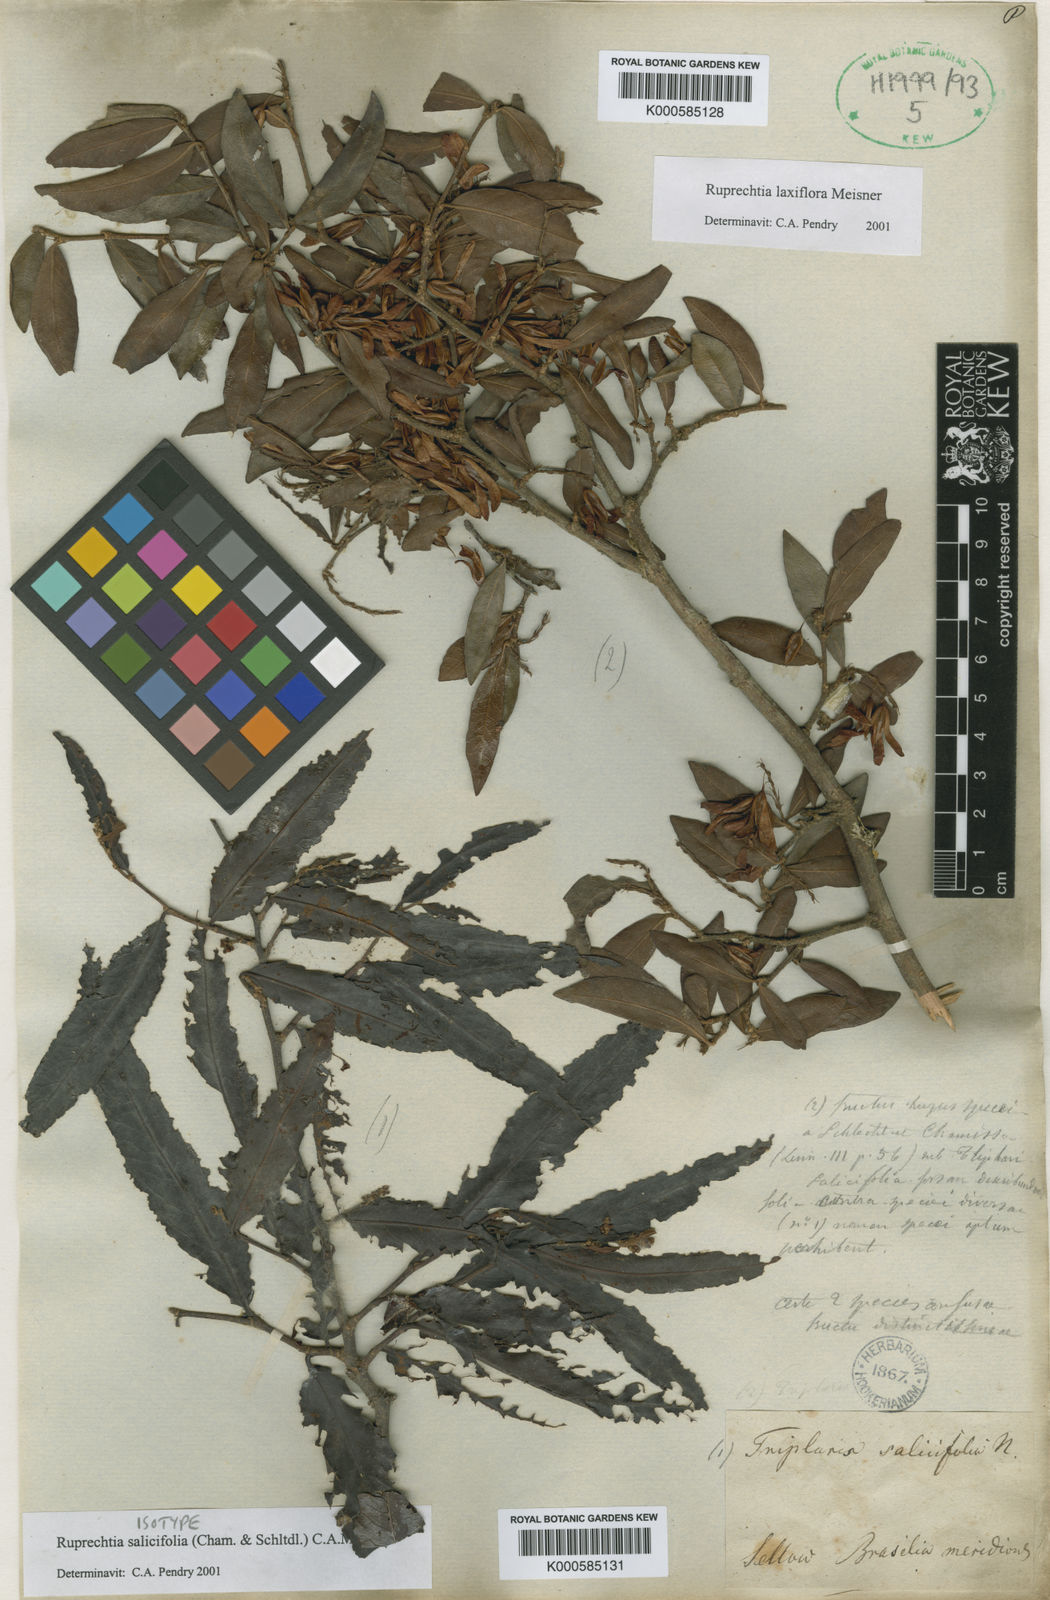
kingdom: Plantae
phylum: Tracheophyta
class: Magnoliopsida
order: Caryophyllales
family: Polygonaceae
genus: Ruprechtia
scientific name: Ruprechtia salicifolia
